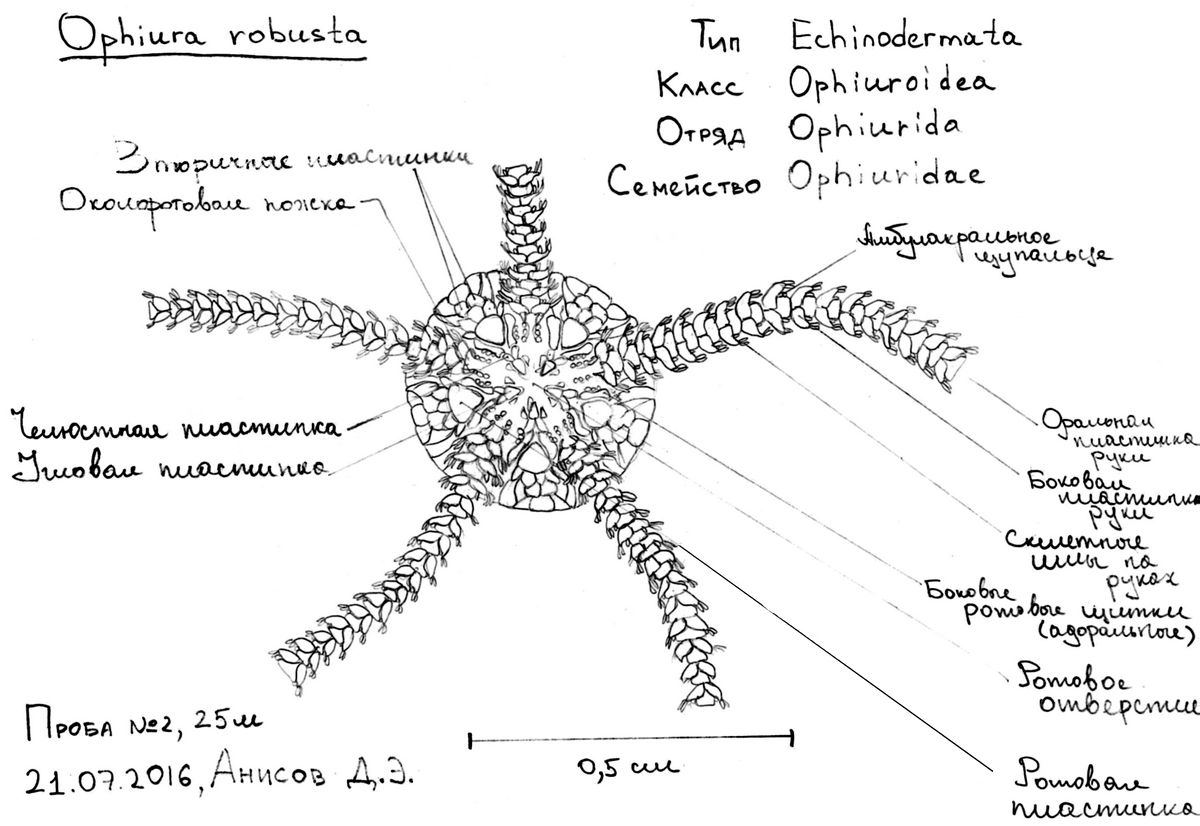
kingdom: Animalia
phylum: Echinodermata
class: Ophiuroidea
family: Ophiuridae
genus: Ophiura
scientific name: Ophiura robusta
